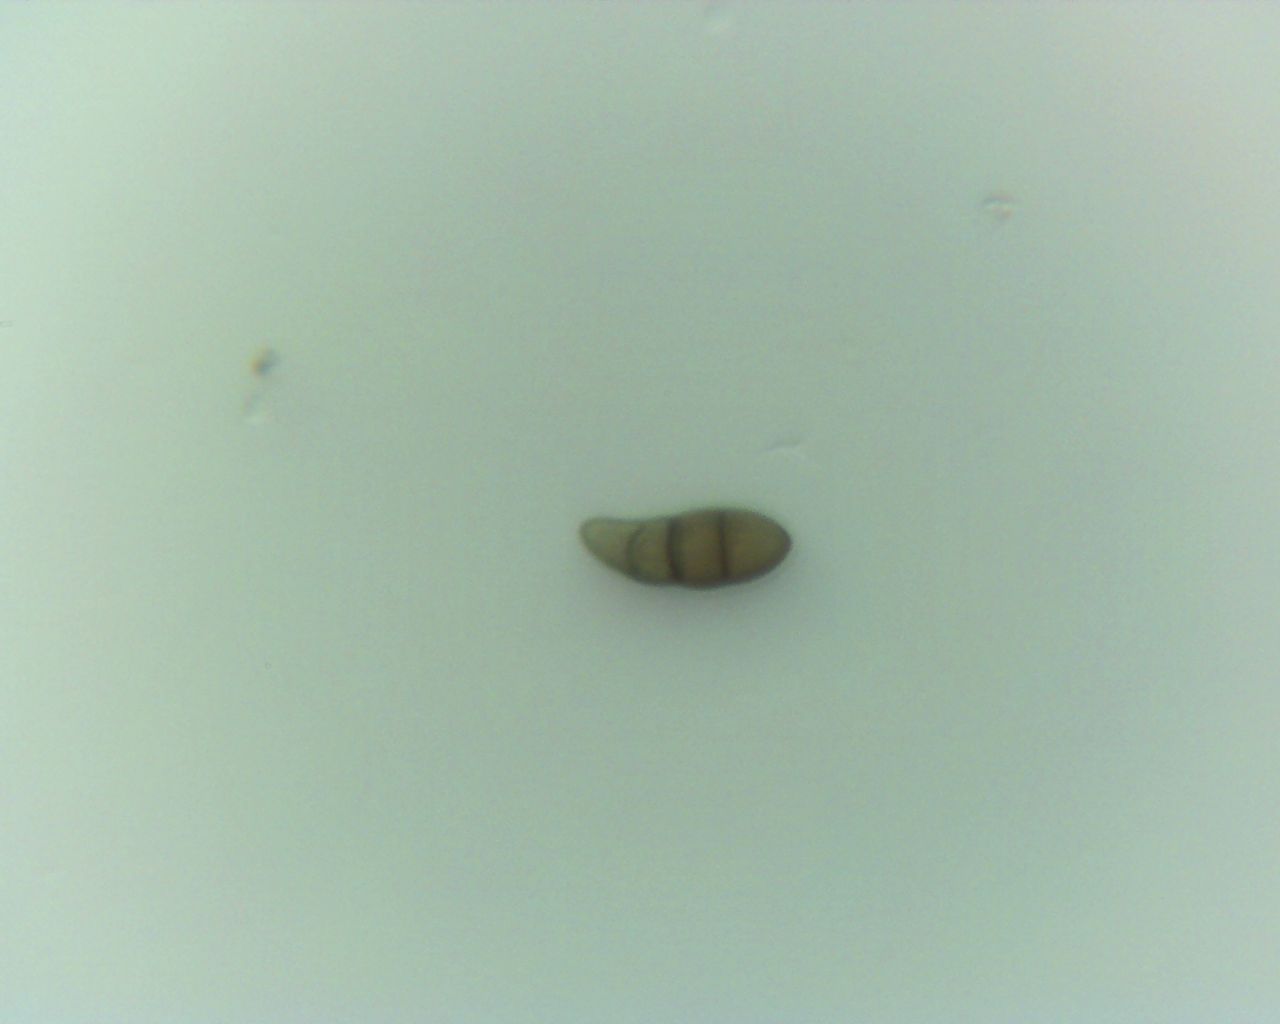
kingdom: Fungi
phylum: Ascomycota
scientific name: Ascomycota
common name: sæksvampe
